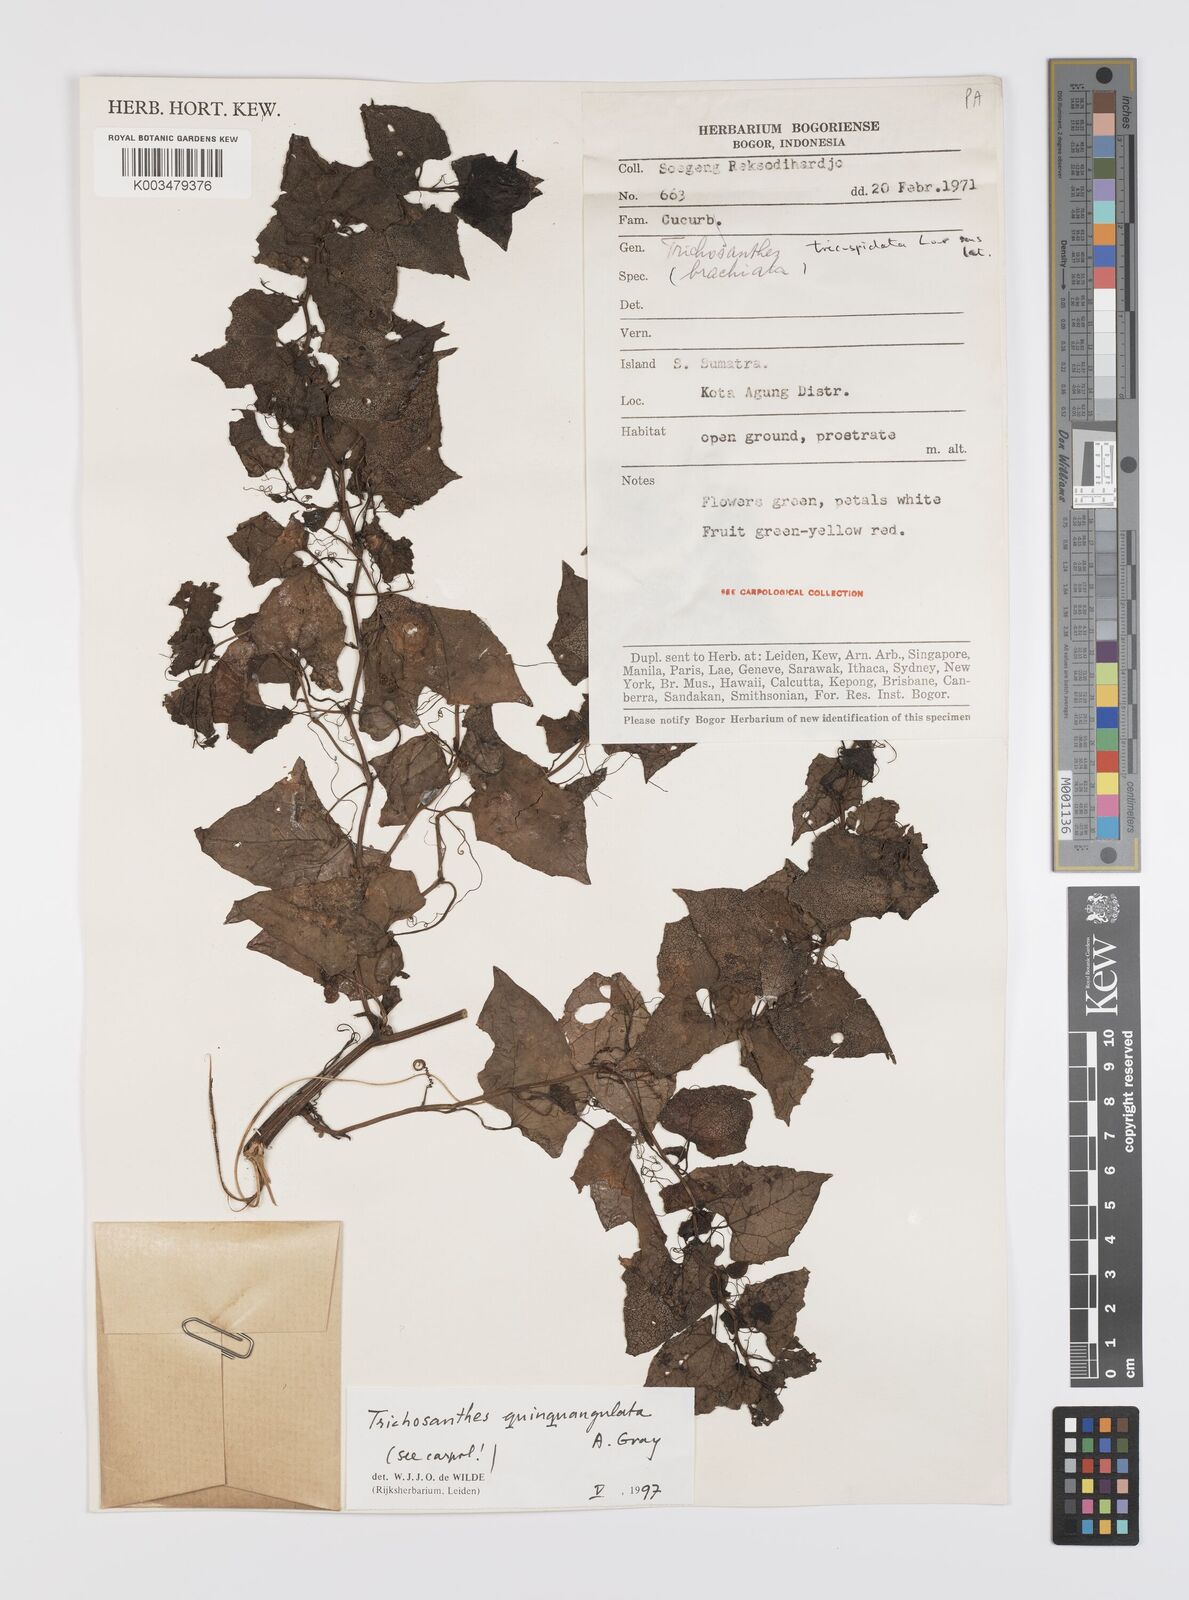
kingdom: Plantae
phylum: Tracheophyta
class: Magnoliopsida
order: Cucurbitales
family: Cucurbitaceae
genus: Trichosanthes
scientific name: Trichosanthes tricuspidata
